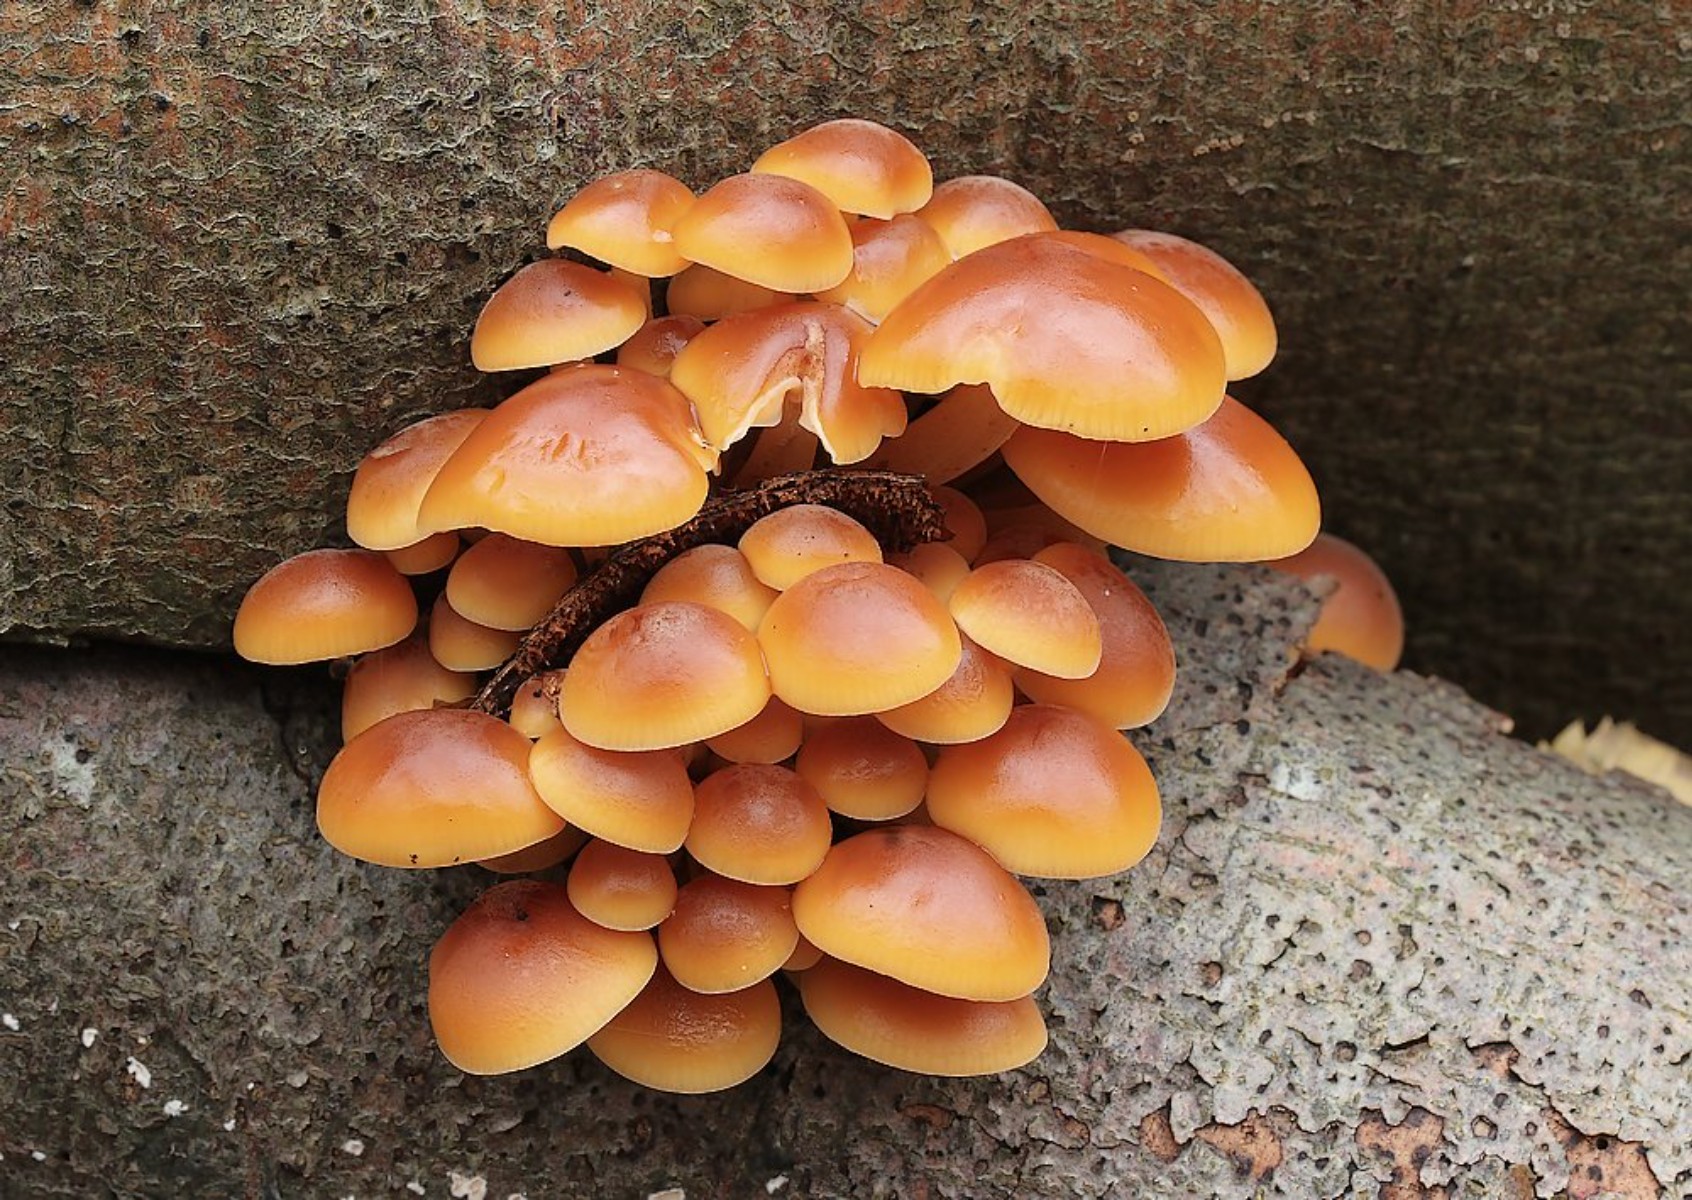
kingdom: Fungi
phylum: Basidiomycota
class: Agaricomycetes
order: Agaricales
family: Physalacriaceae
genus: Flammulina
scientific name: Flammulina velutipes
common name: gul fløjlsfod
